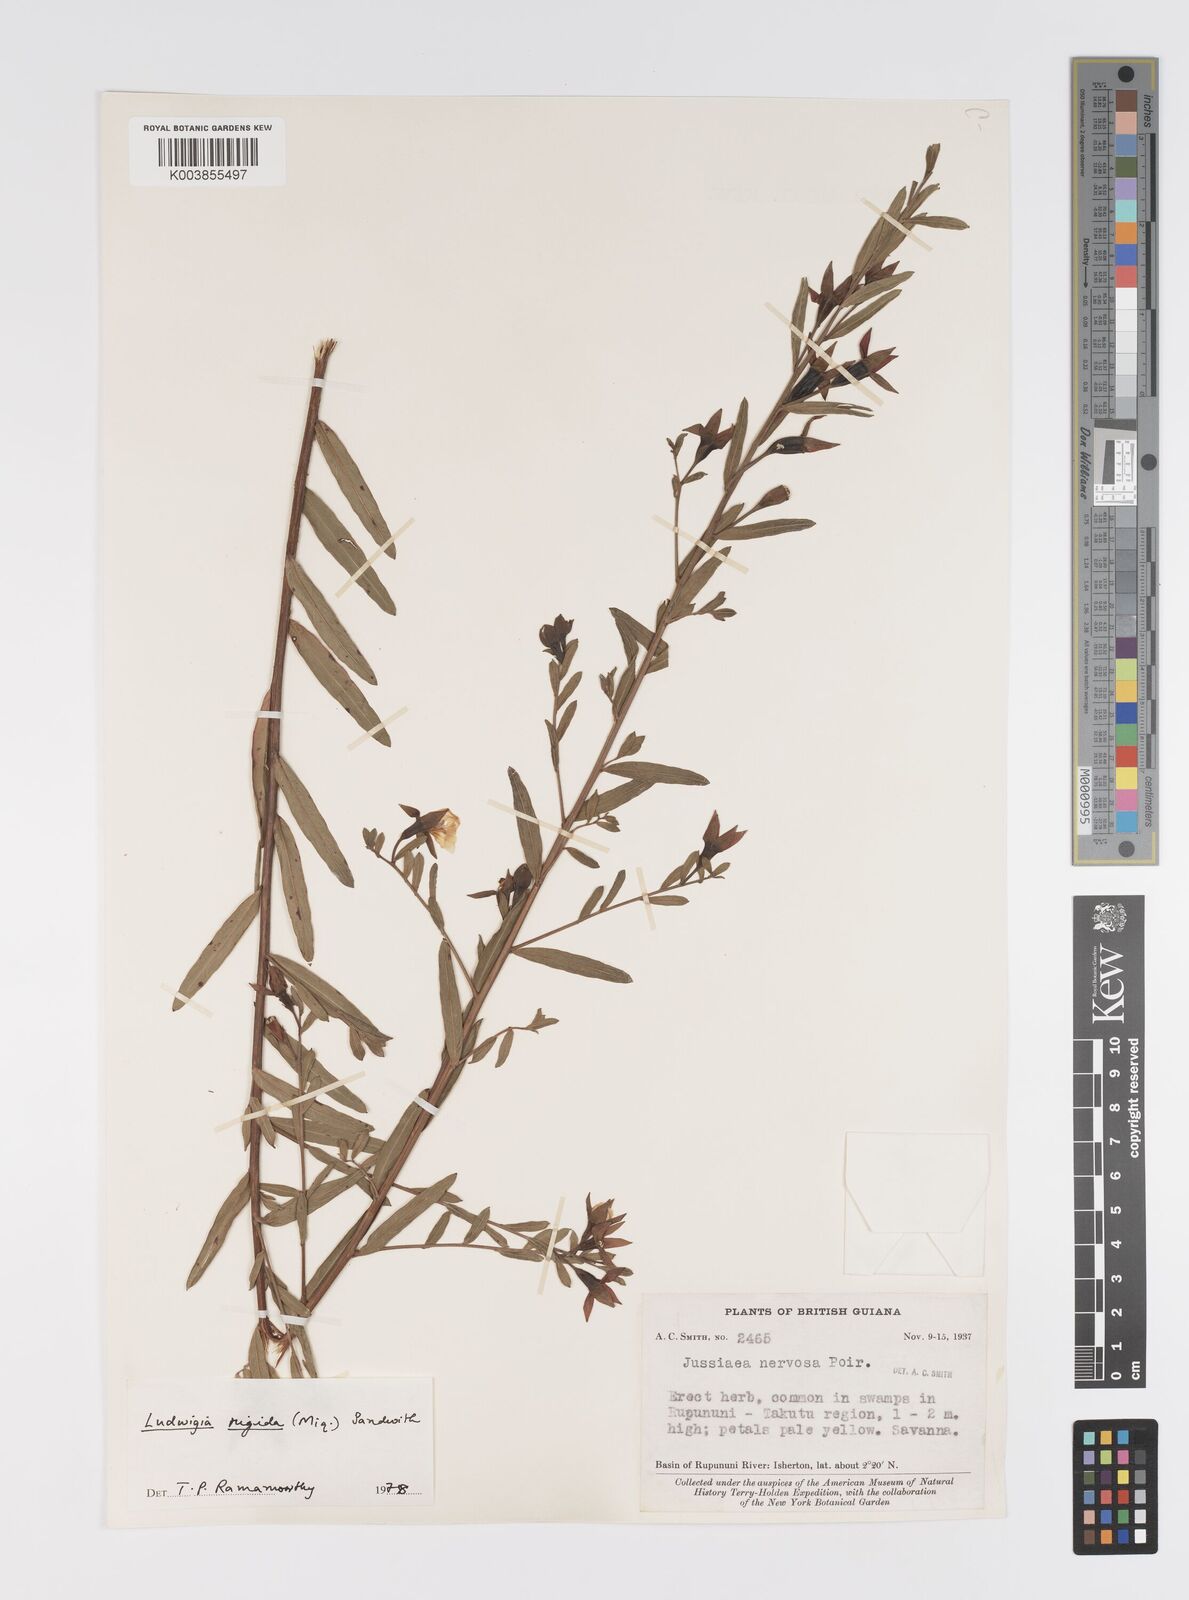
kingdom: Plantae
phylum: Tracheophyta
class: Magnoliopsida
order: Myrtales
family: Onagraceae
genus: Ludwigia
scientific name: Ludwigia rigida
